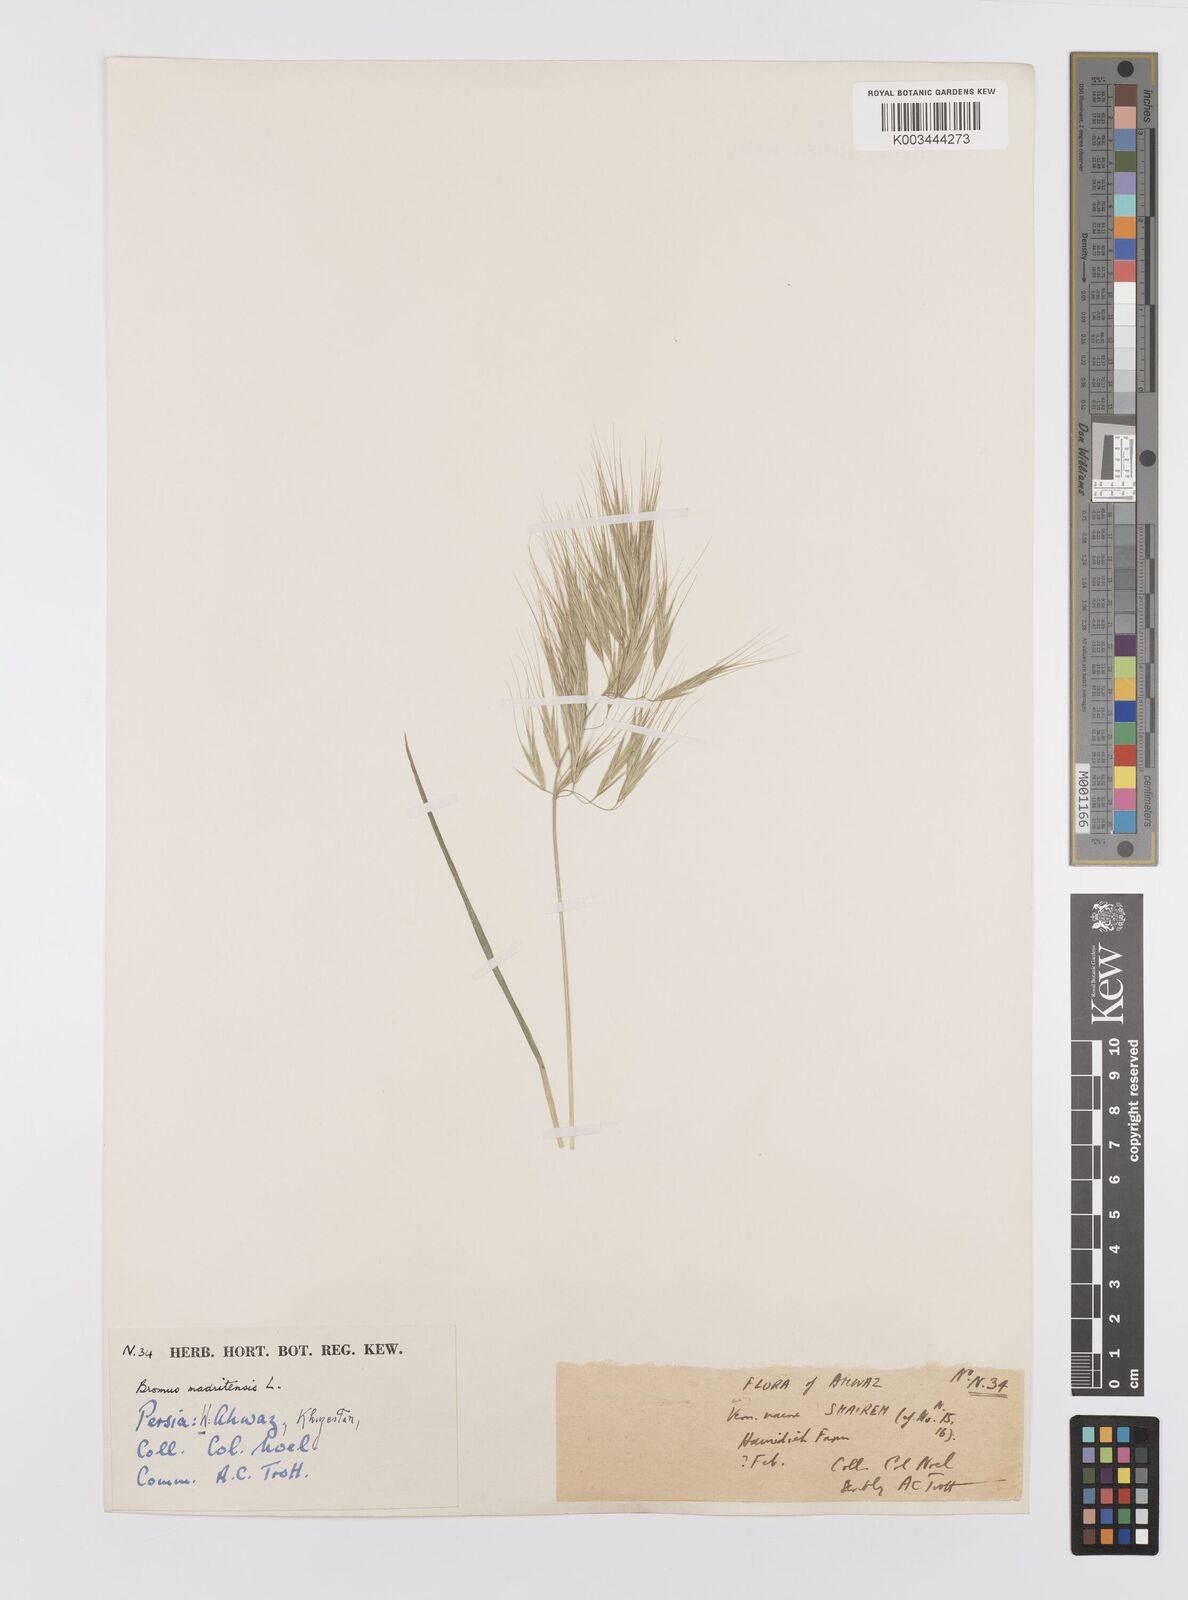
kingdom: Plantae
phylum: Tracheophyta
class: Liliopsida
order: Poales
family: Poaceae
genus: Bromus
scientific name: Bromus madritensis
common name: Compact brome
